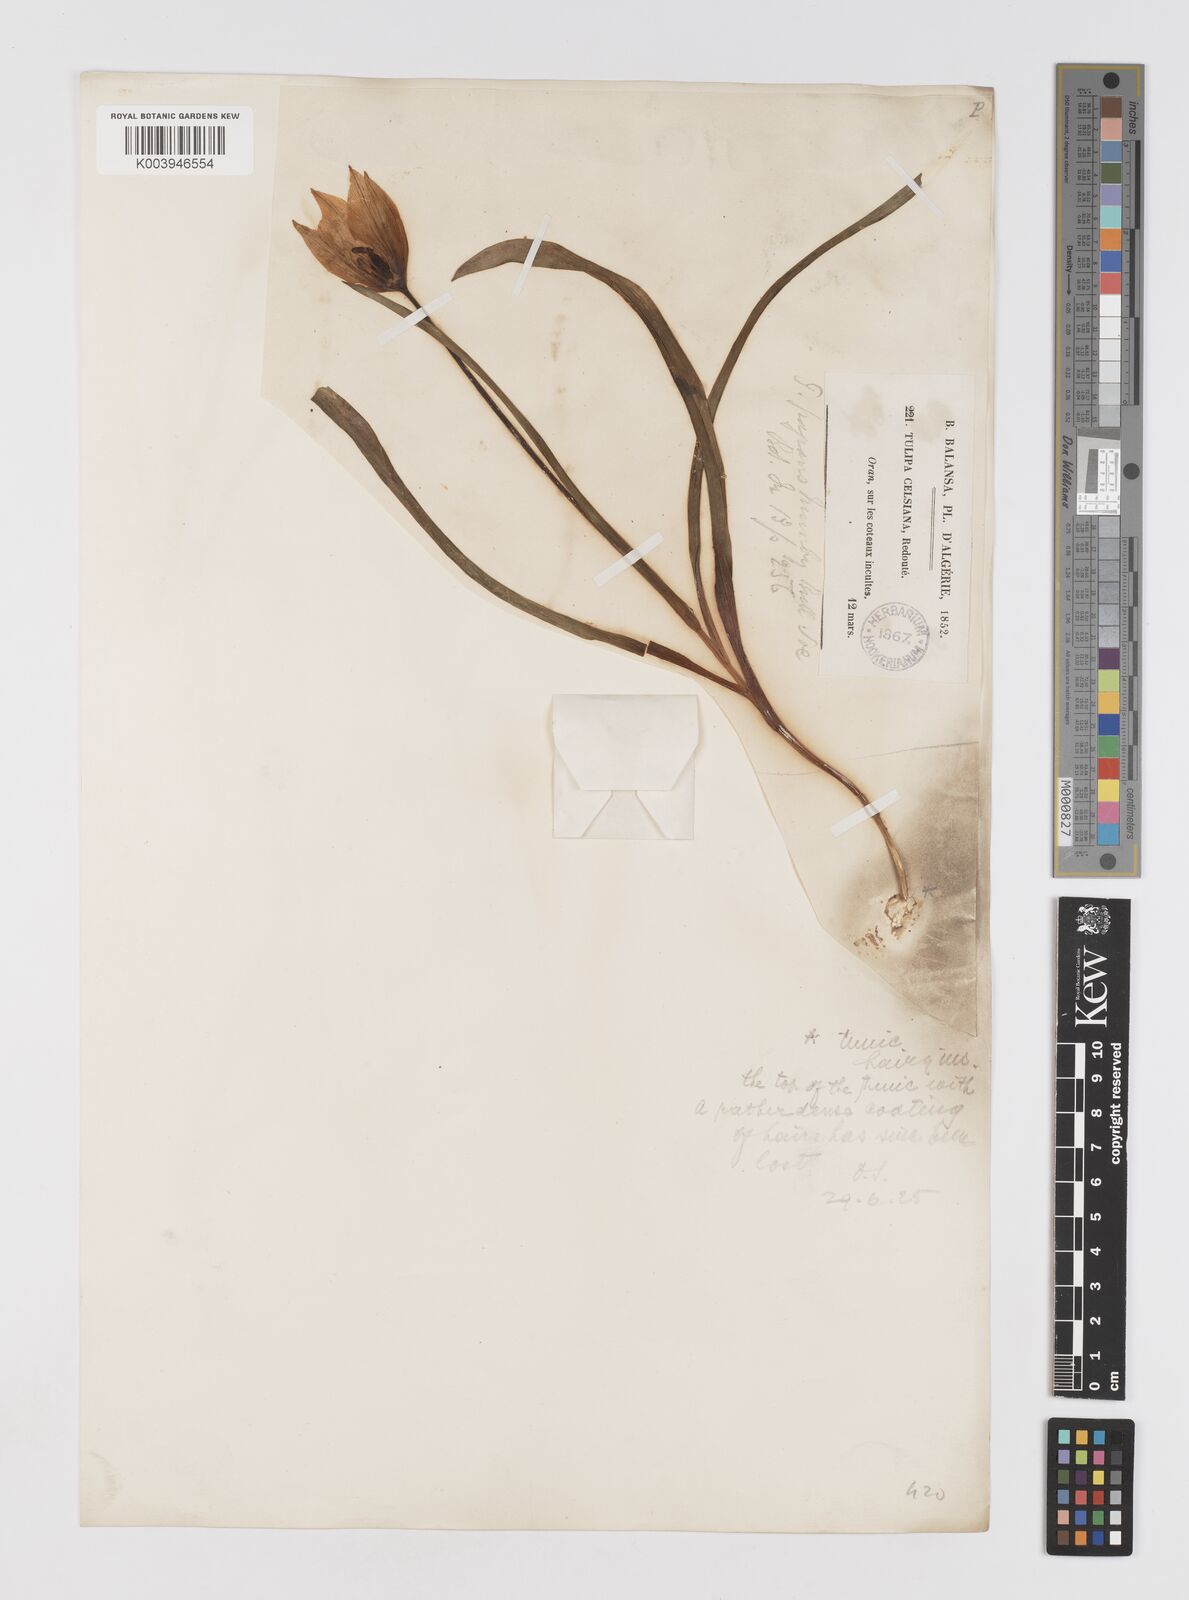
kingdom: Plantae
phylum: Tracheophyta
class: Liliopsida
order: Liliales
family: Liliaceae
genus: Tulipa
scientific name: Tulipa sylvestris
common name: Wild tulip
